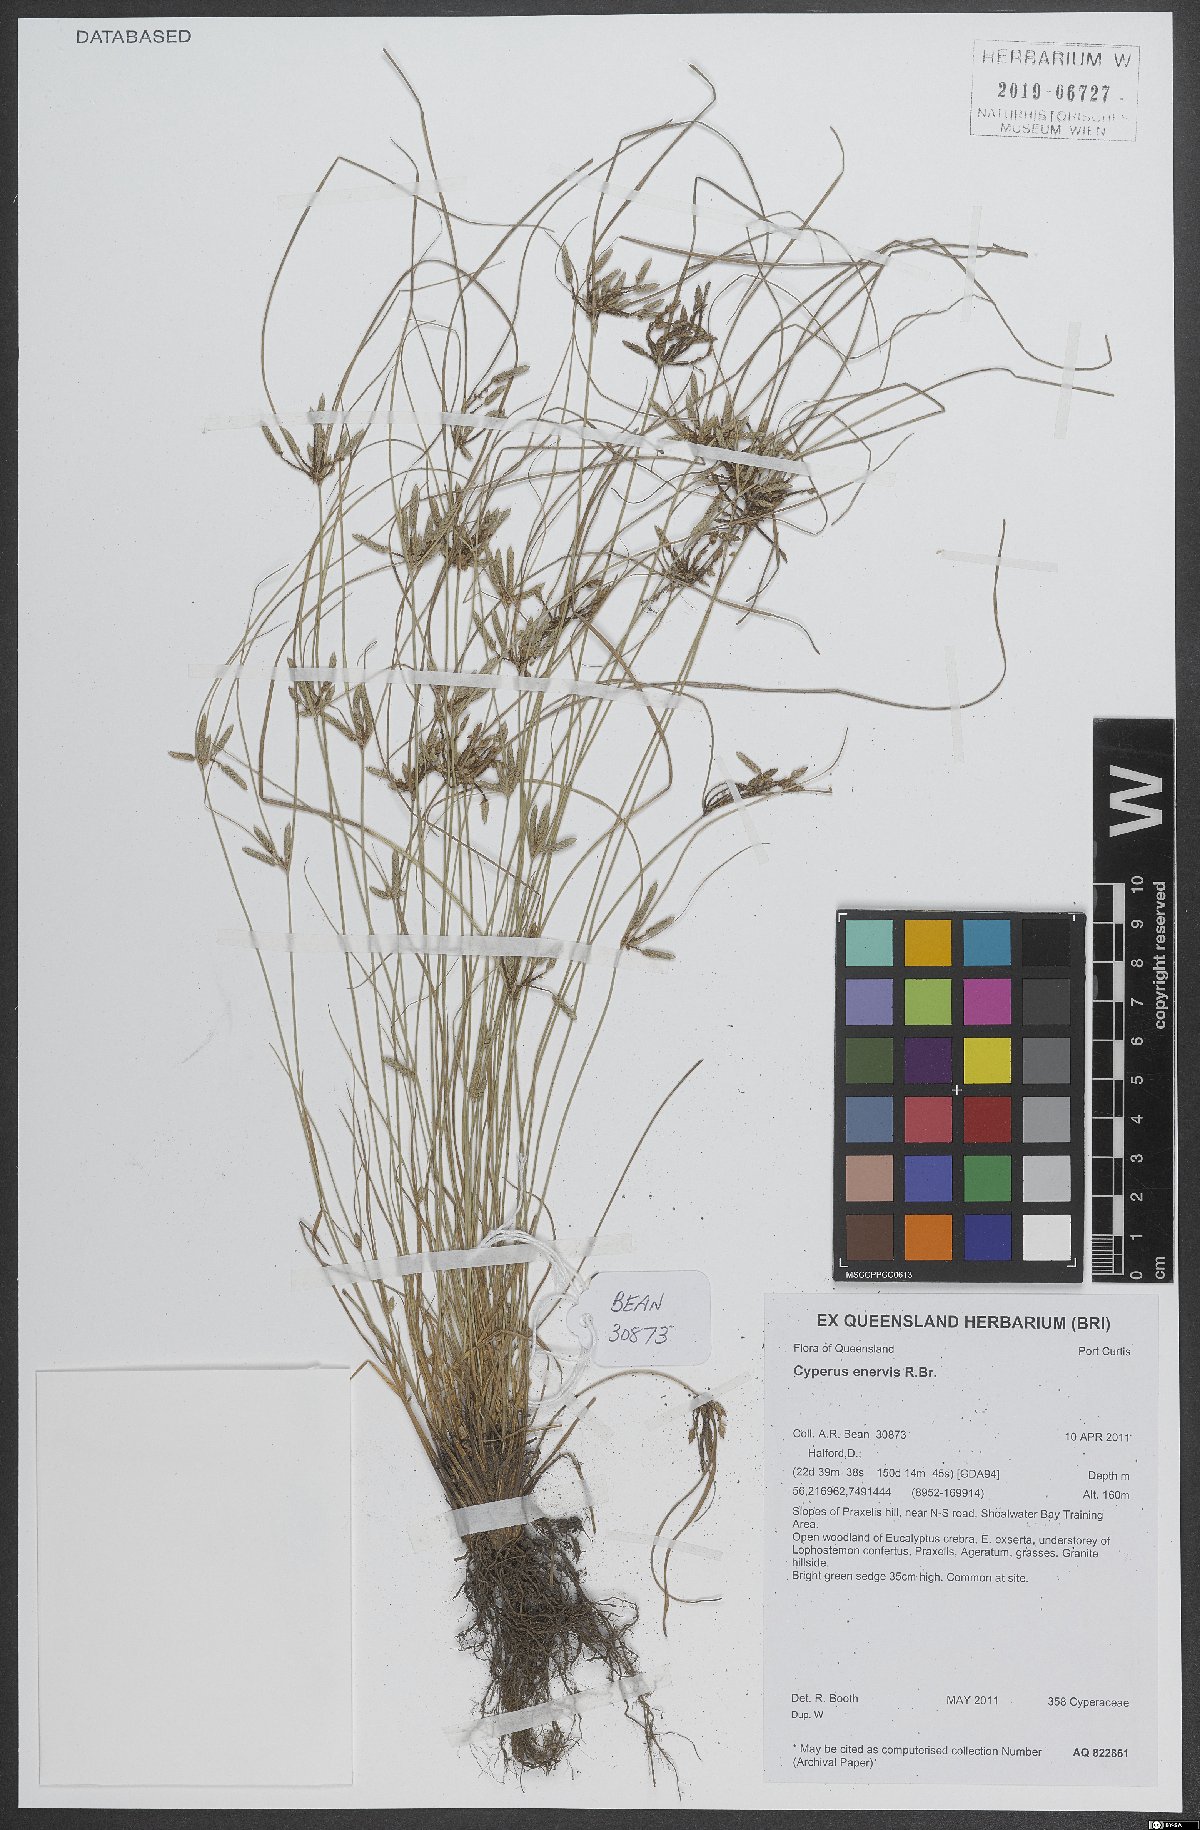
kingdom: Plantae
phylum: Tracheophyta
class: Liliopsida
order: Poales
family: Cyperaceae
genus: Cyperus
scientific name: Cyperus enervis
